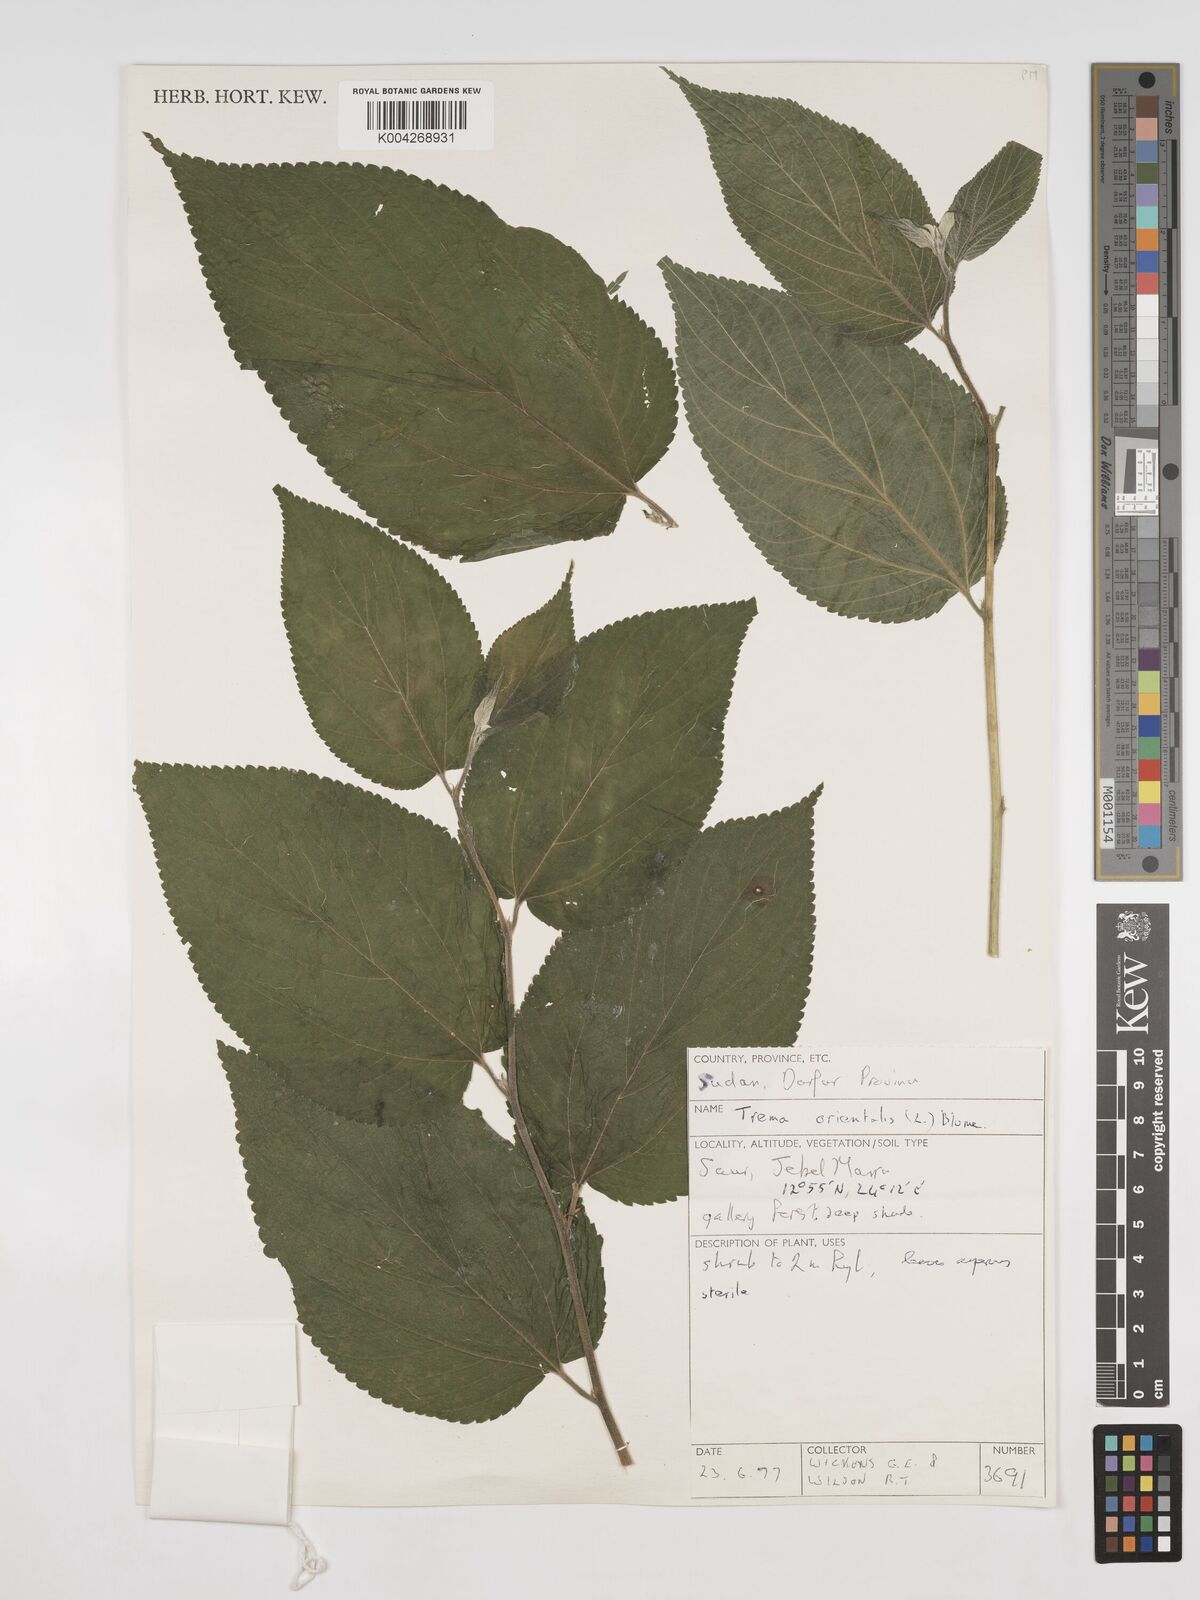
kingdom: Plantae
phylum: Tracheophyta
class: Magnoliopsida
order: Rosales
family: Cannabaceae
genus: Trema
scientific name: Trema orientale
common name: Indian charcoal tree
